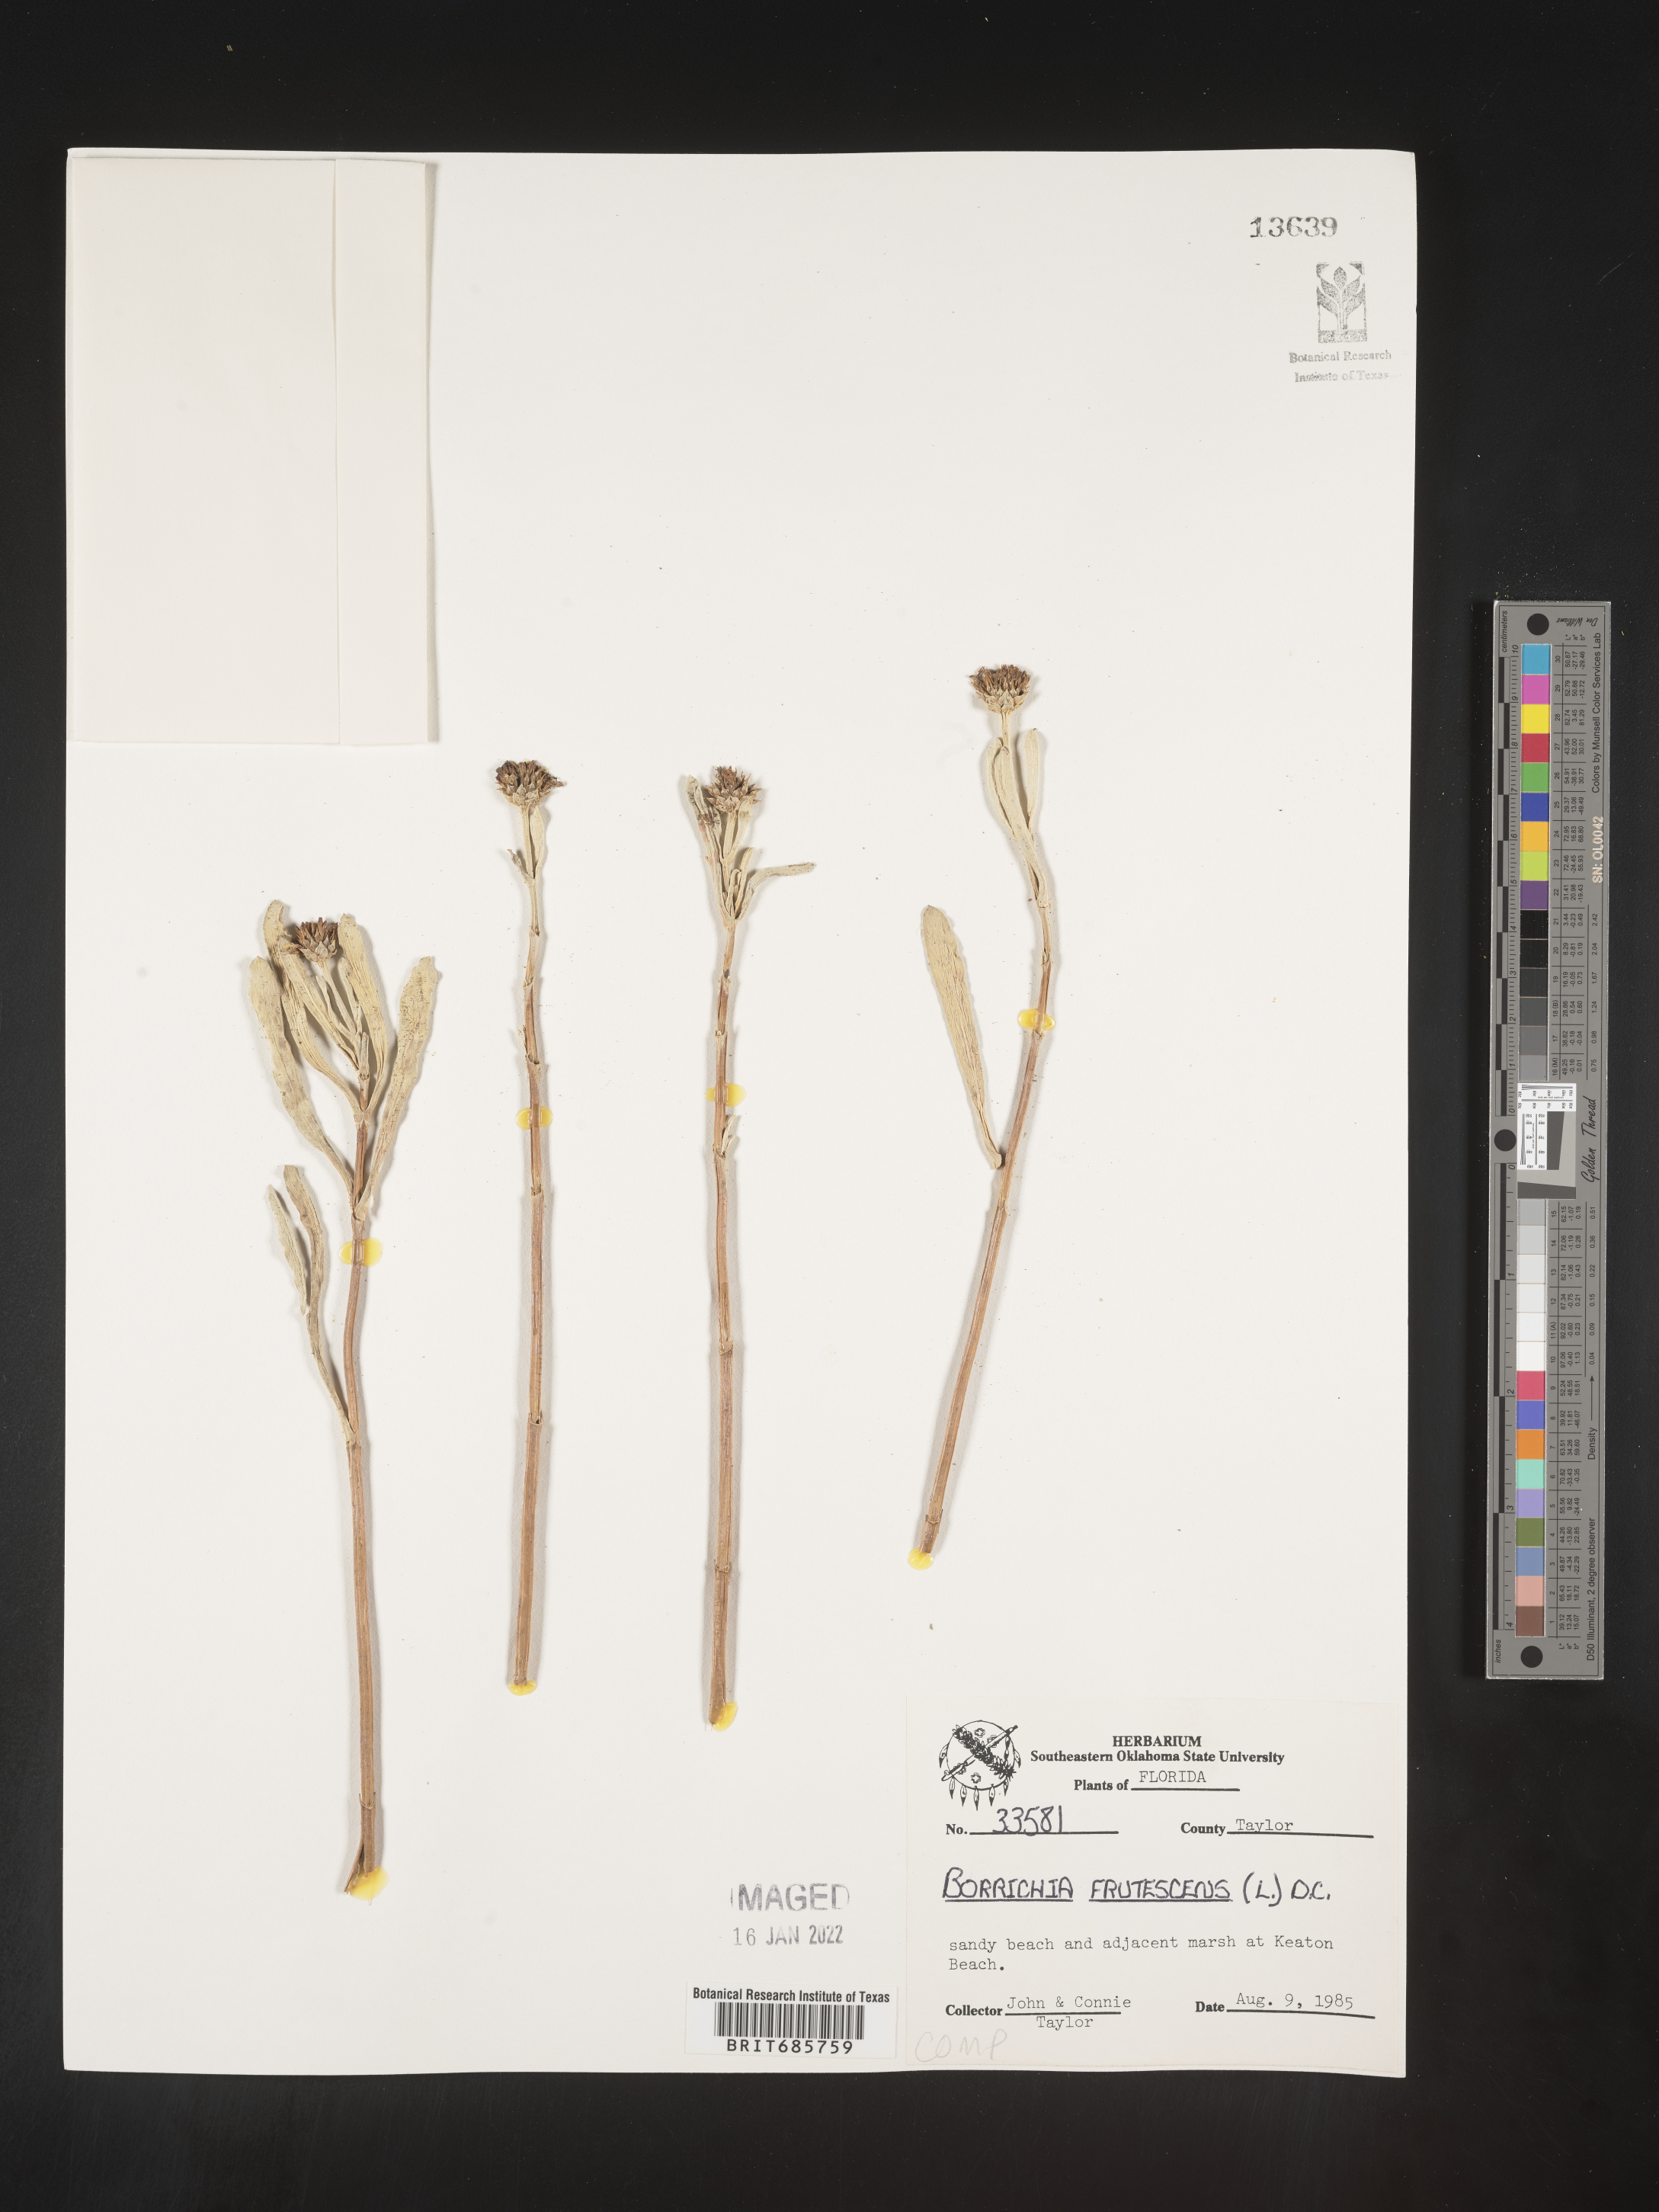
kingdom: Plantae
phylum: Tracheophyta
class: Magnoliopsida
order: Asterales
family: Asteraceae
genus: Borrichia
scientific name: Borrichia frutescens
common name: Sea oxeye
